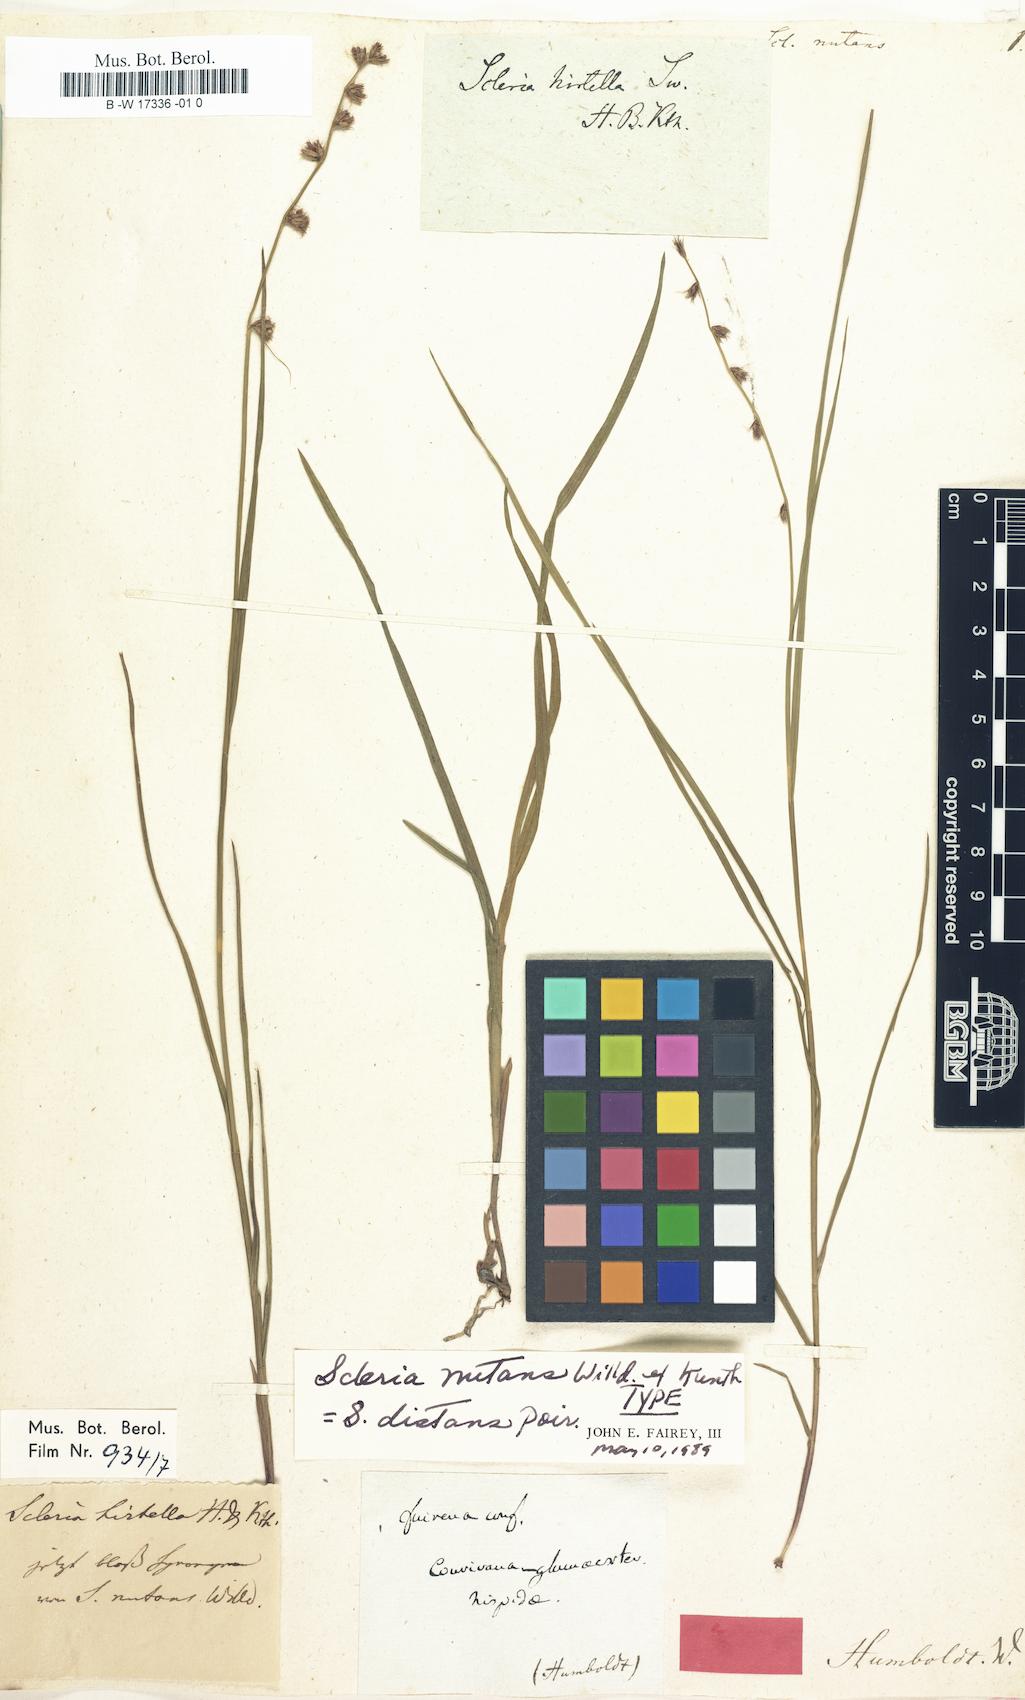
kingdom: Plantae
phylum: Tracheophyta
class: Liliopsida
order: Poales
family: Cyperaceae
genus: Scleria
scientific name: Scleria distans
